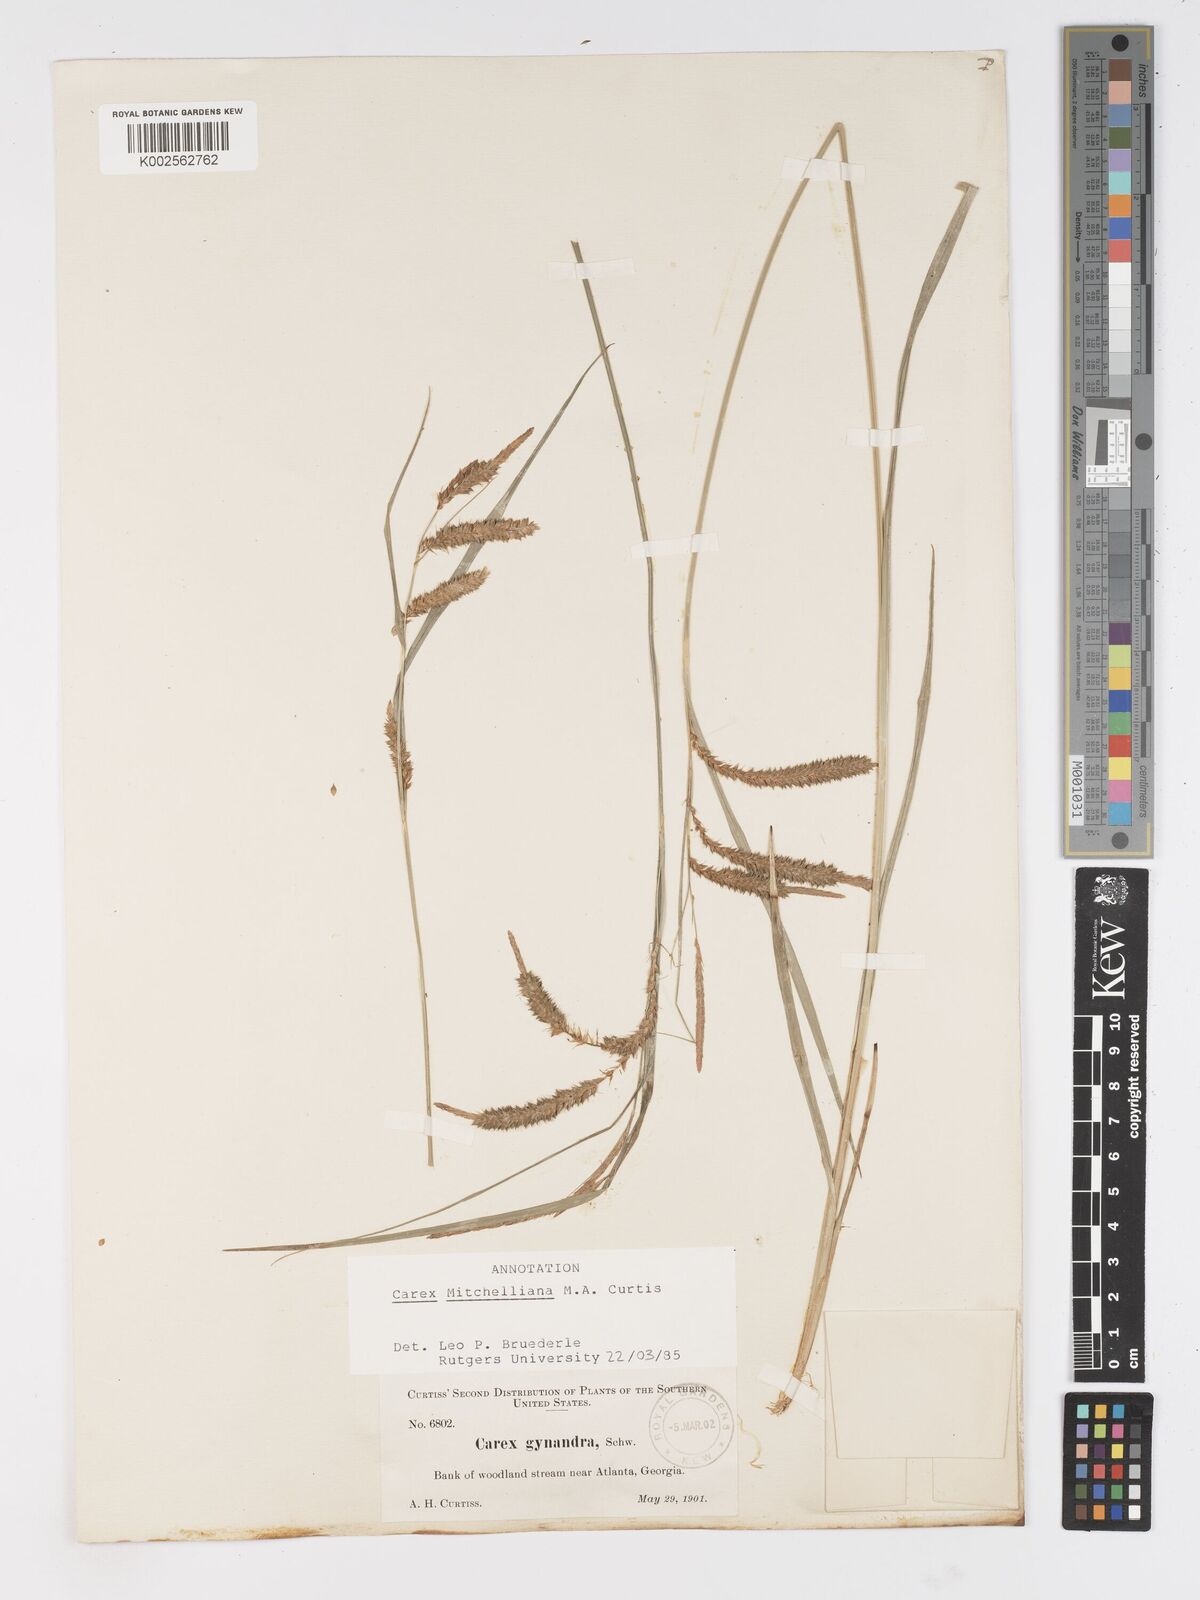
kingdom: Plantae
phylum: Tracheophyta
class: Liliopsida
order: Poales
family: Cyperaceae
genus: Carex
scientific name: Carex mitchelliana
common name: Mitchell's sedge
